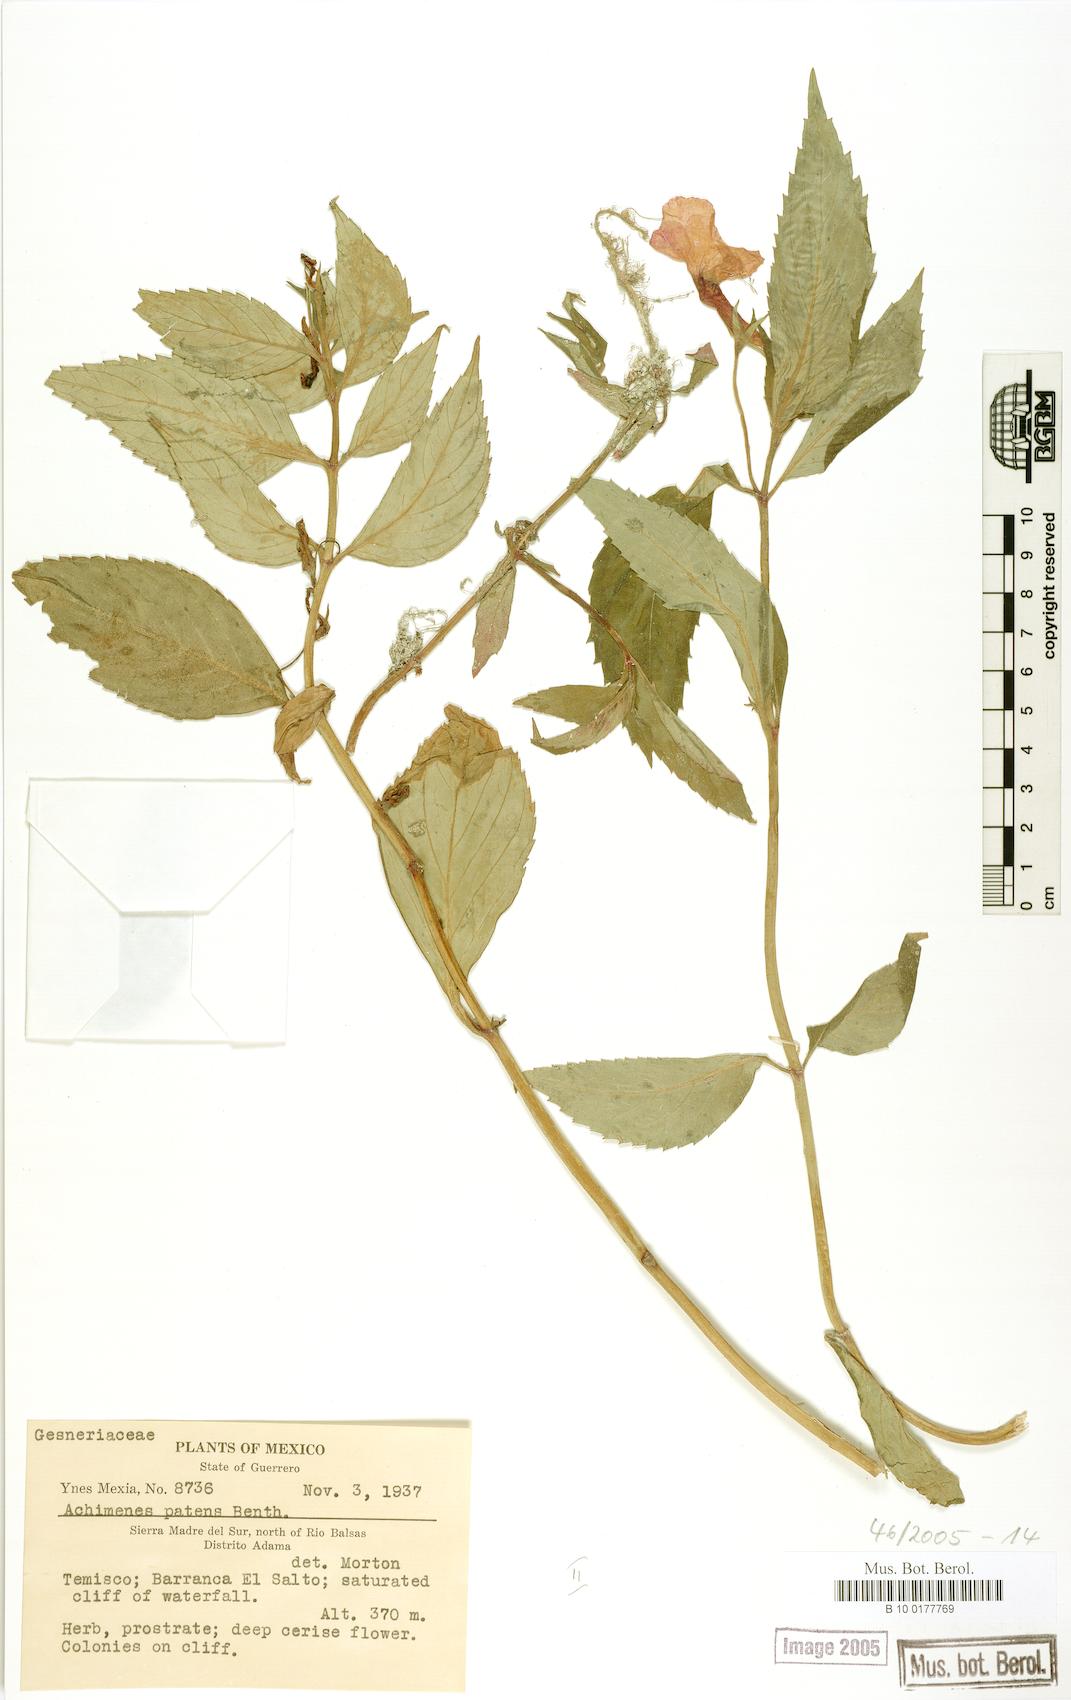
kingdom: Plantae
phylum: Tracheophyta
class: Magnoliopsida
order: Lamiales
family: Gesneriaceae
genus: Achimenes
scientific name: Achimenes patens
